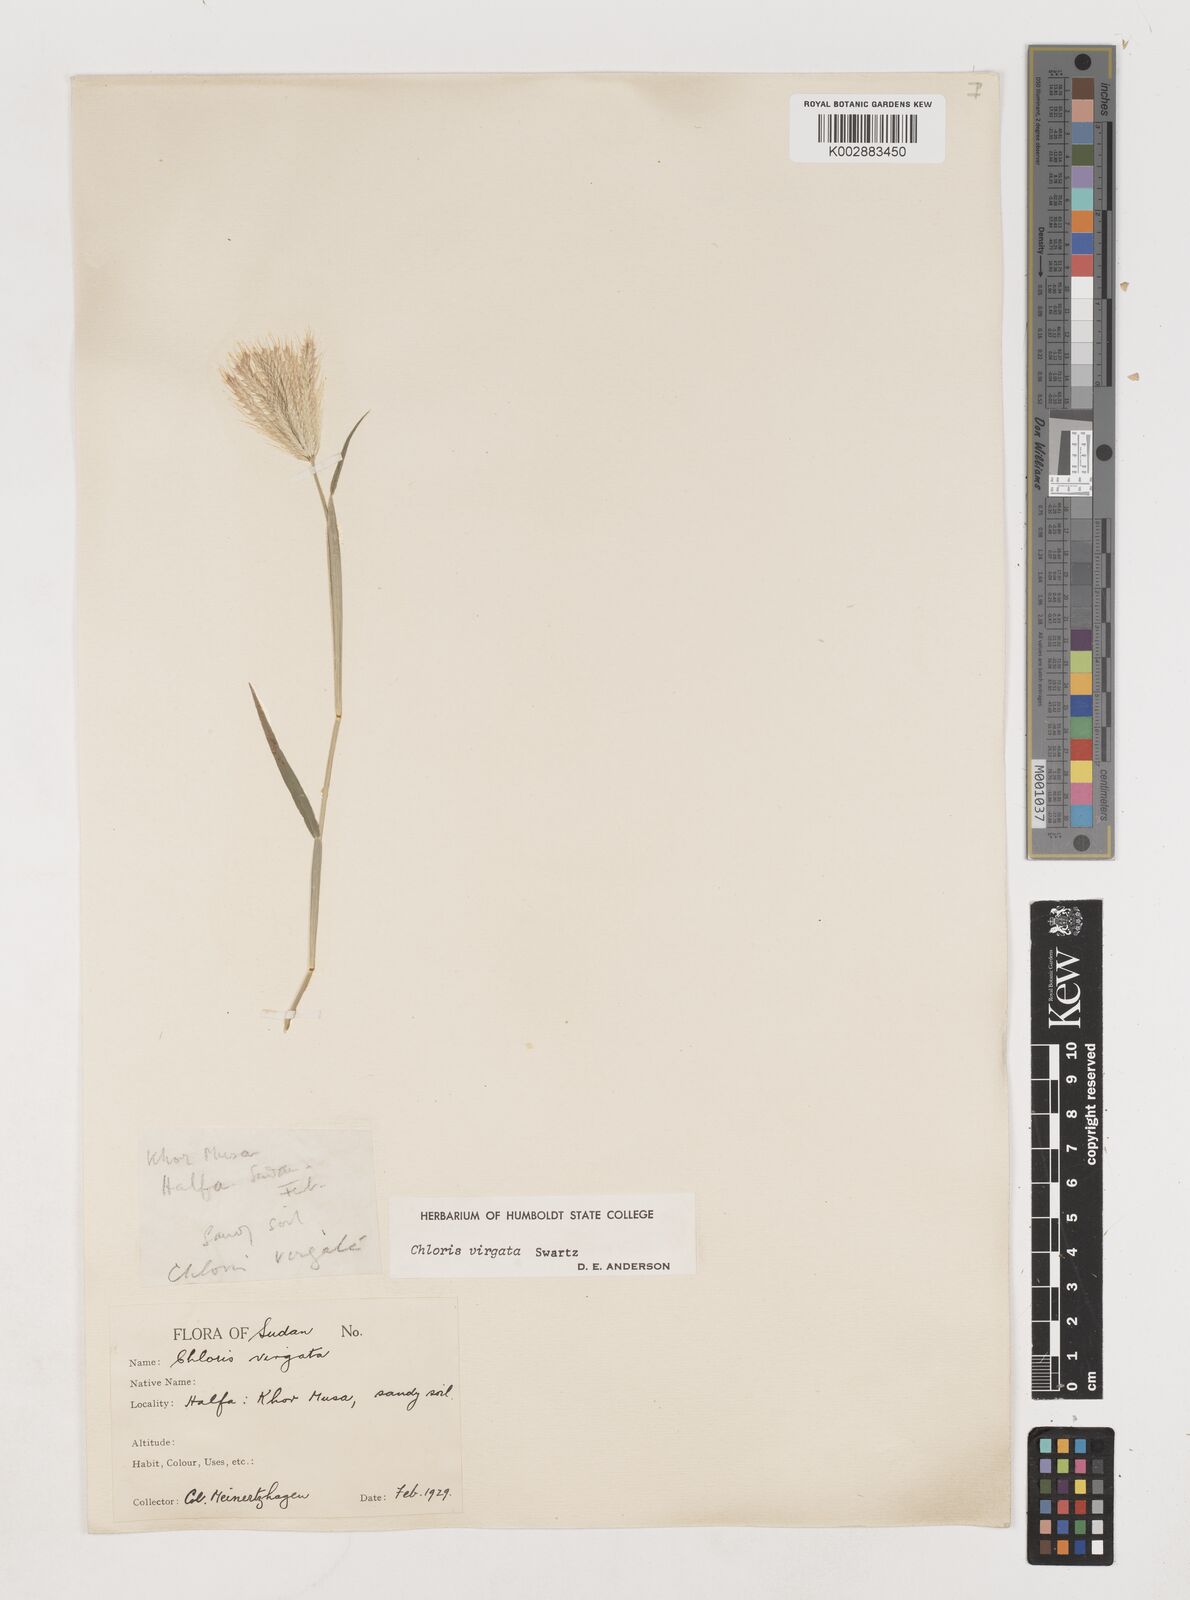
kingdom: Plantae
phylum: Tracheophyta
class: Liliopsida
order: Poales
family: Poaceae
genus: Chloris
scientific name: Chloris virgata
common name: Feathery rhodes-grass
